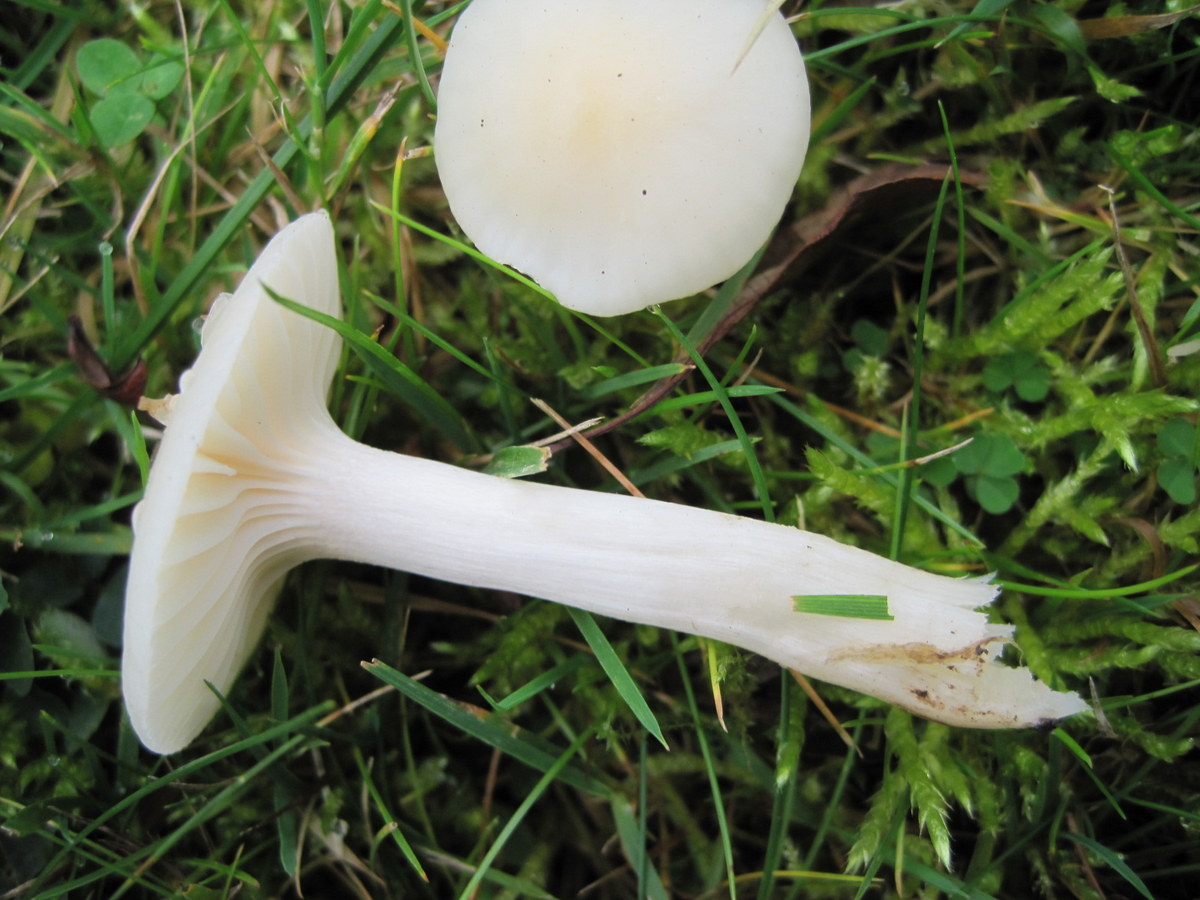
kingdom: Fungi
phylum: Basidiomycota
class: Agaricomycetes
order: Agaricales
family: Hygrophoraceae
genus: Cuphophyllus
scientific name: Cuphophyllus virgineus
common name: snehvid vokshat
